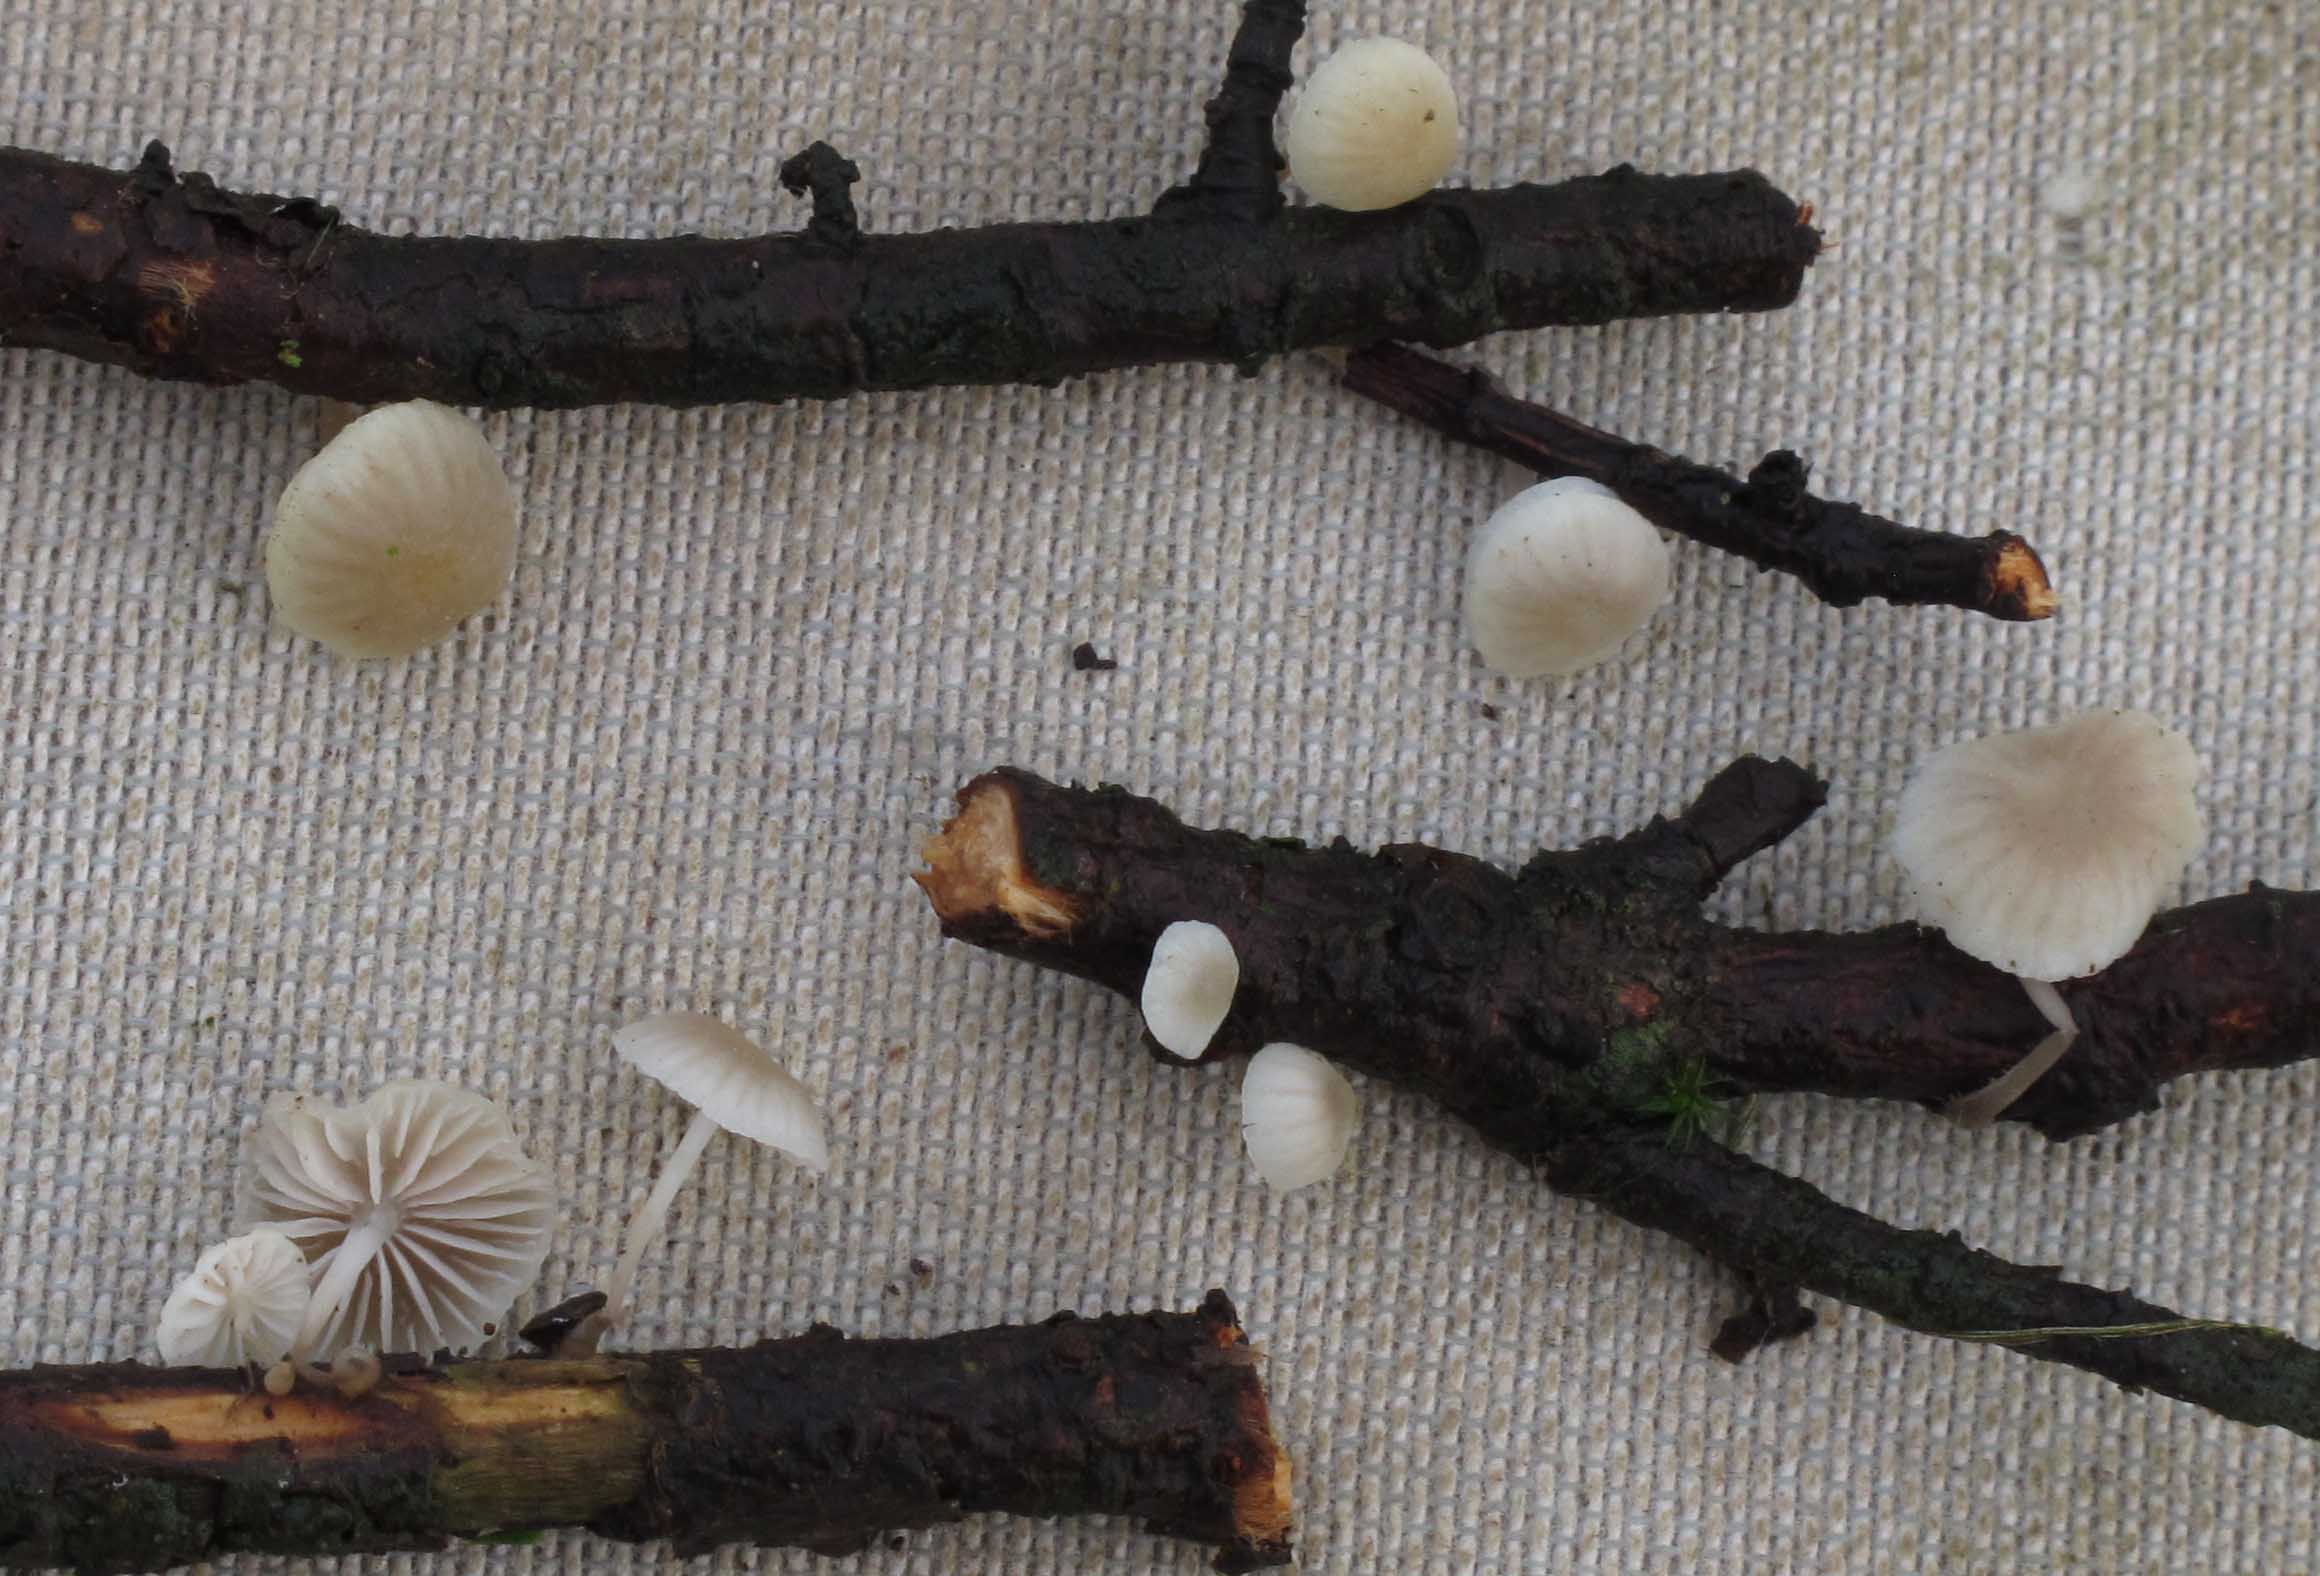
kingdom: Fungi
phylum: Basidiomycota
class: Agaricomycetes
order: Agaricales
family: Mycenaceae
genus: Mycena
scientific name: Mycena arcangeliana
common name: oliven-huesvamp
